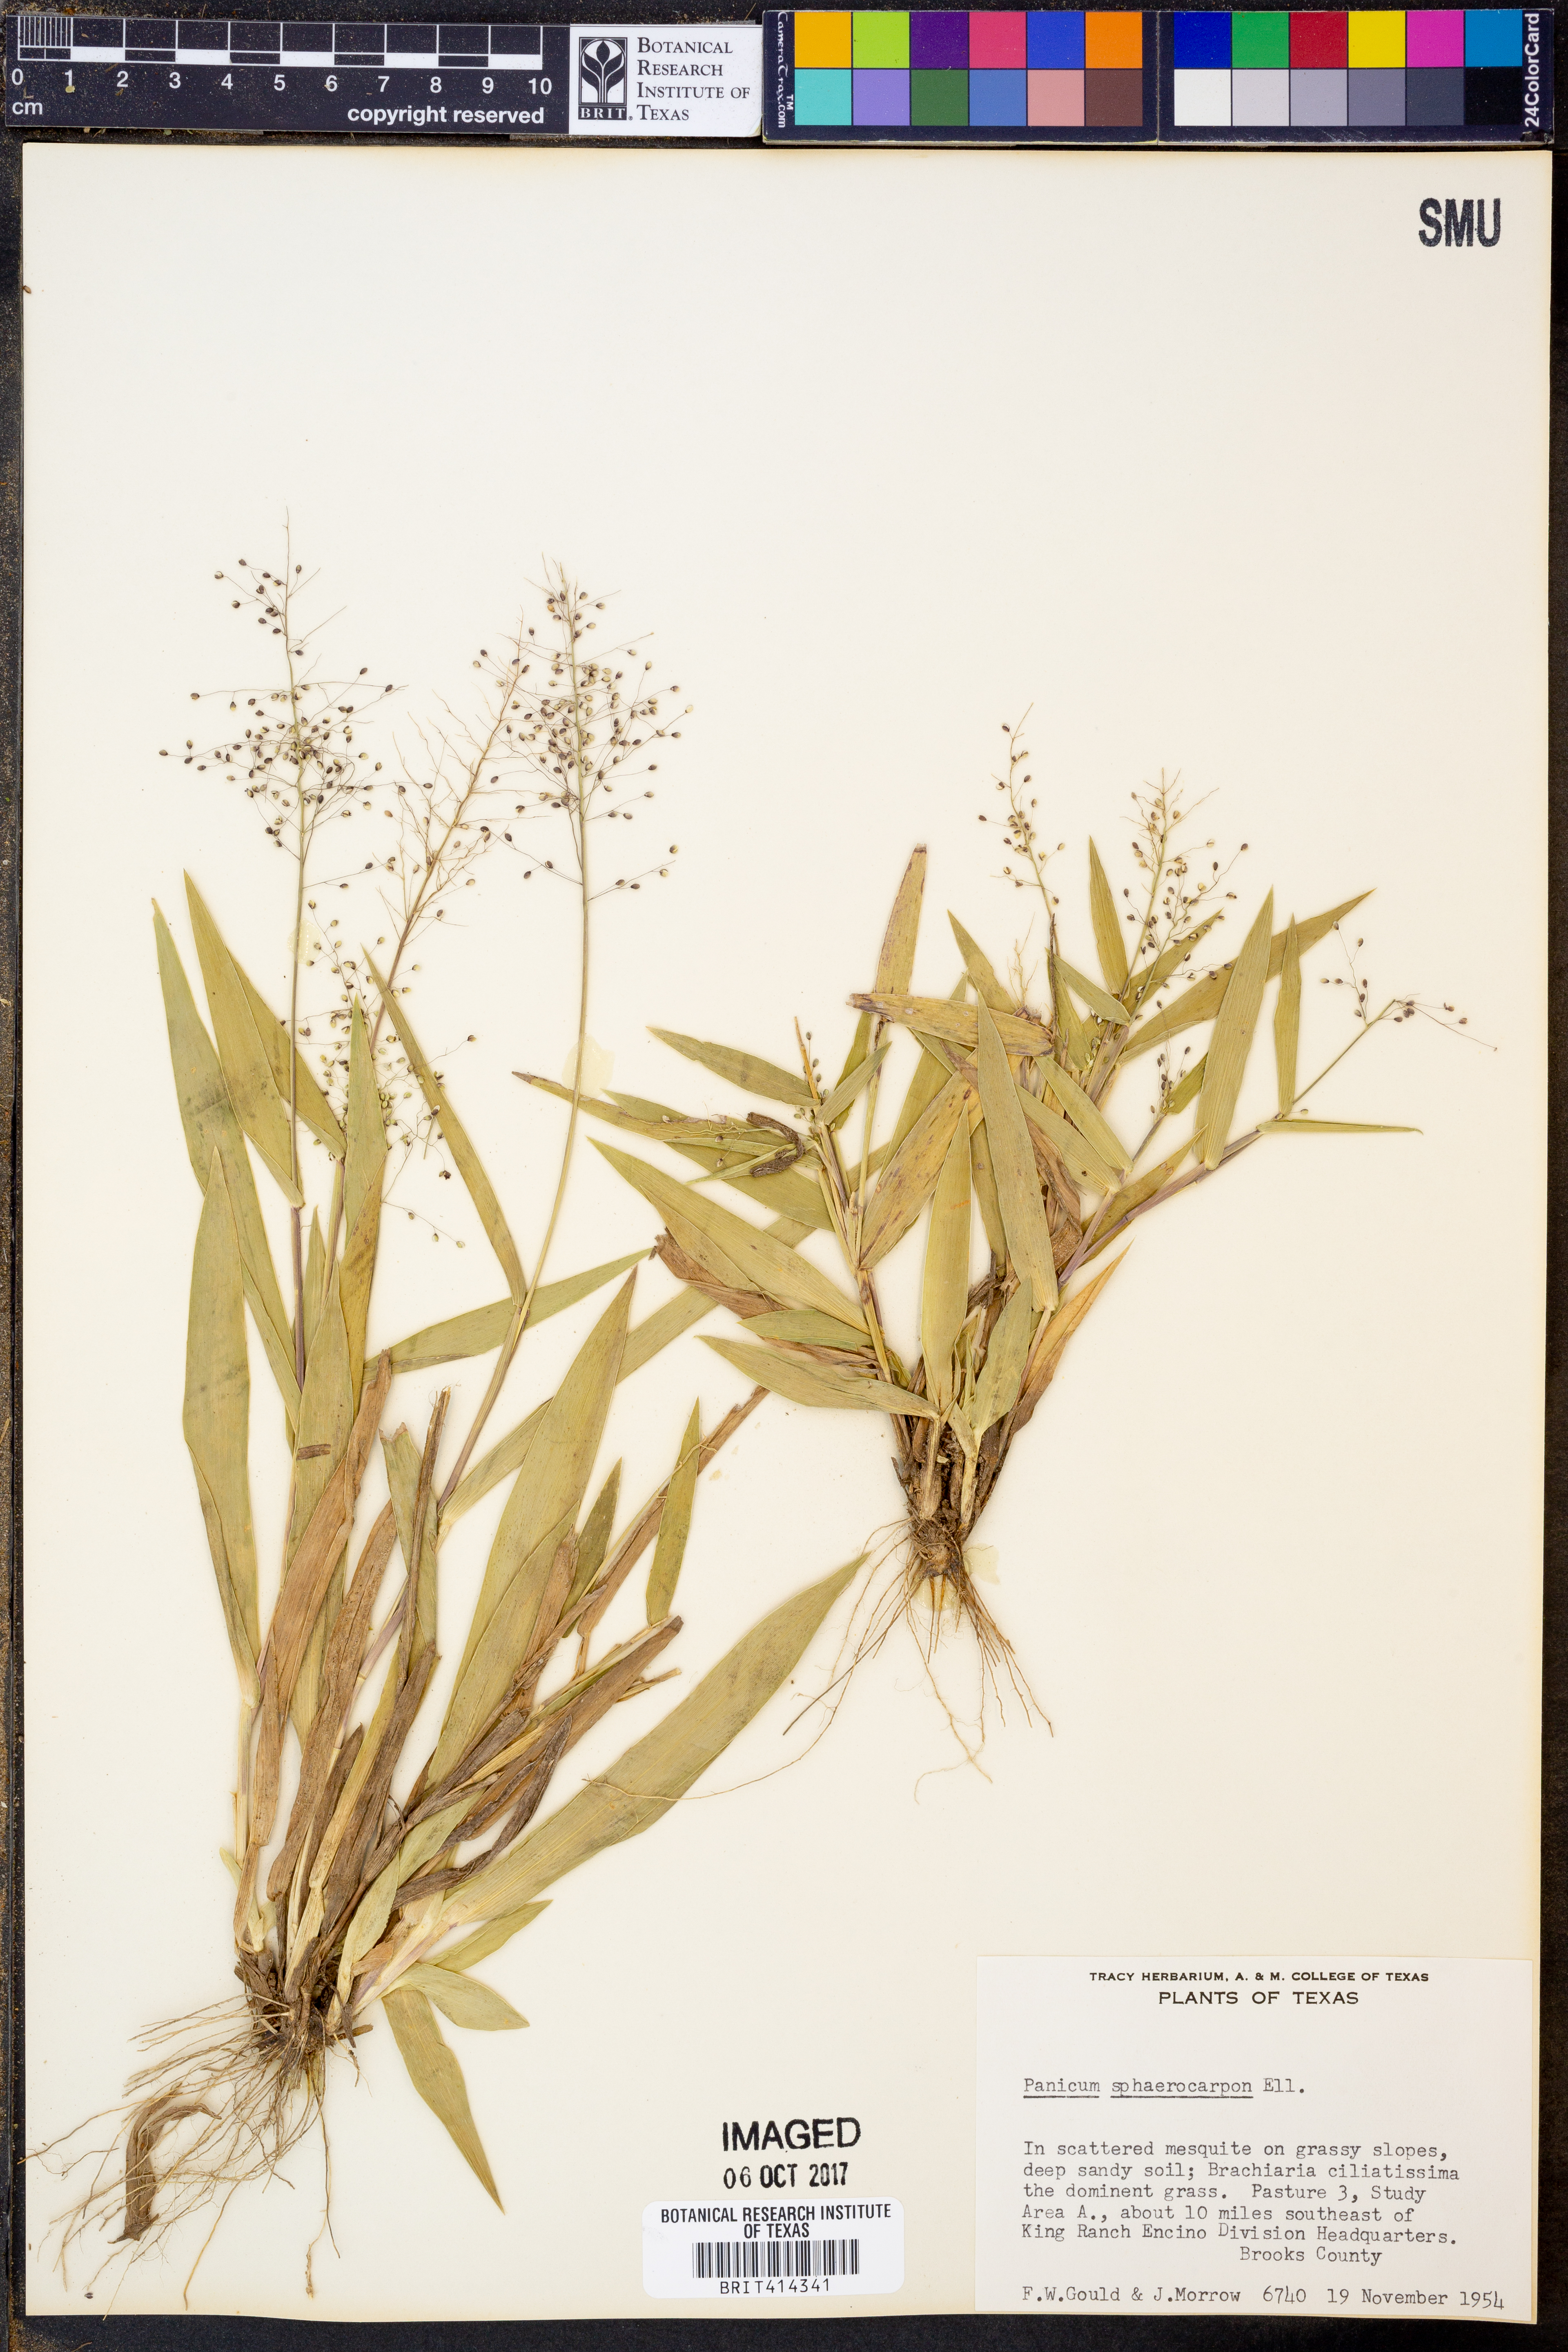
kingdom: Plantae
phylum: Tracheophyta
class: Liliopsida
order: Poales
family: Poaceae
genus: Dichanthelium
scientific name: Dichanthelium sphaerocarpon
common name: Round-fruited panicgrass
